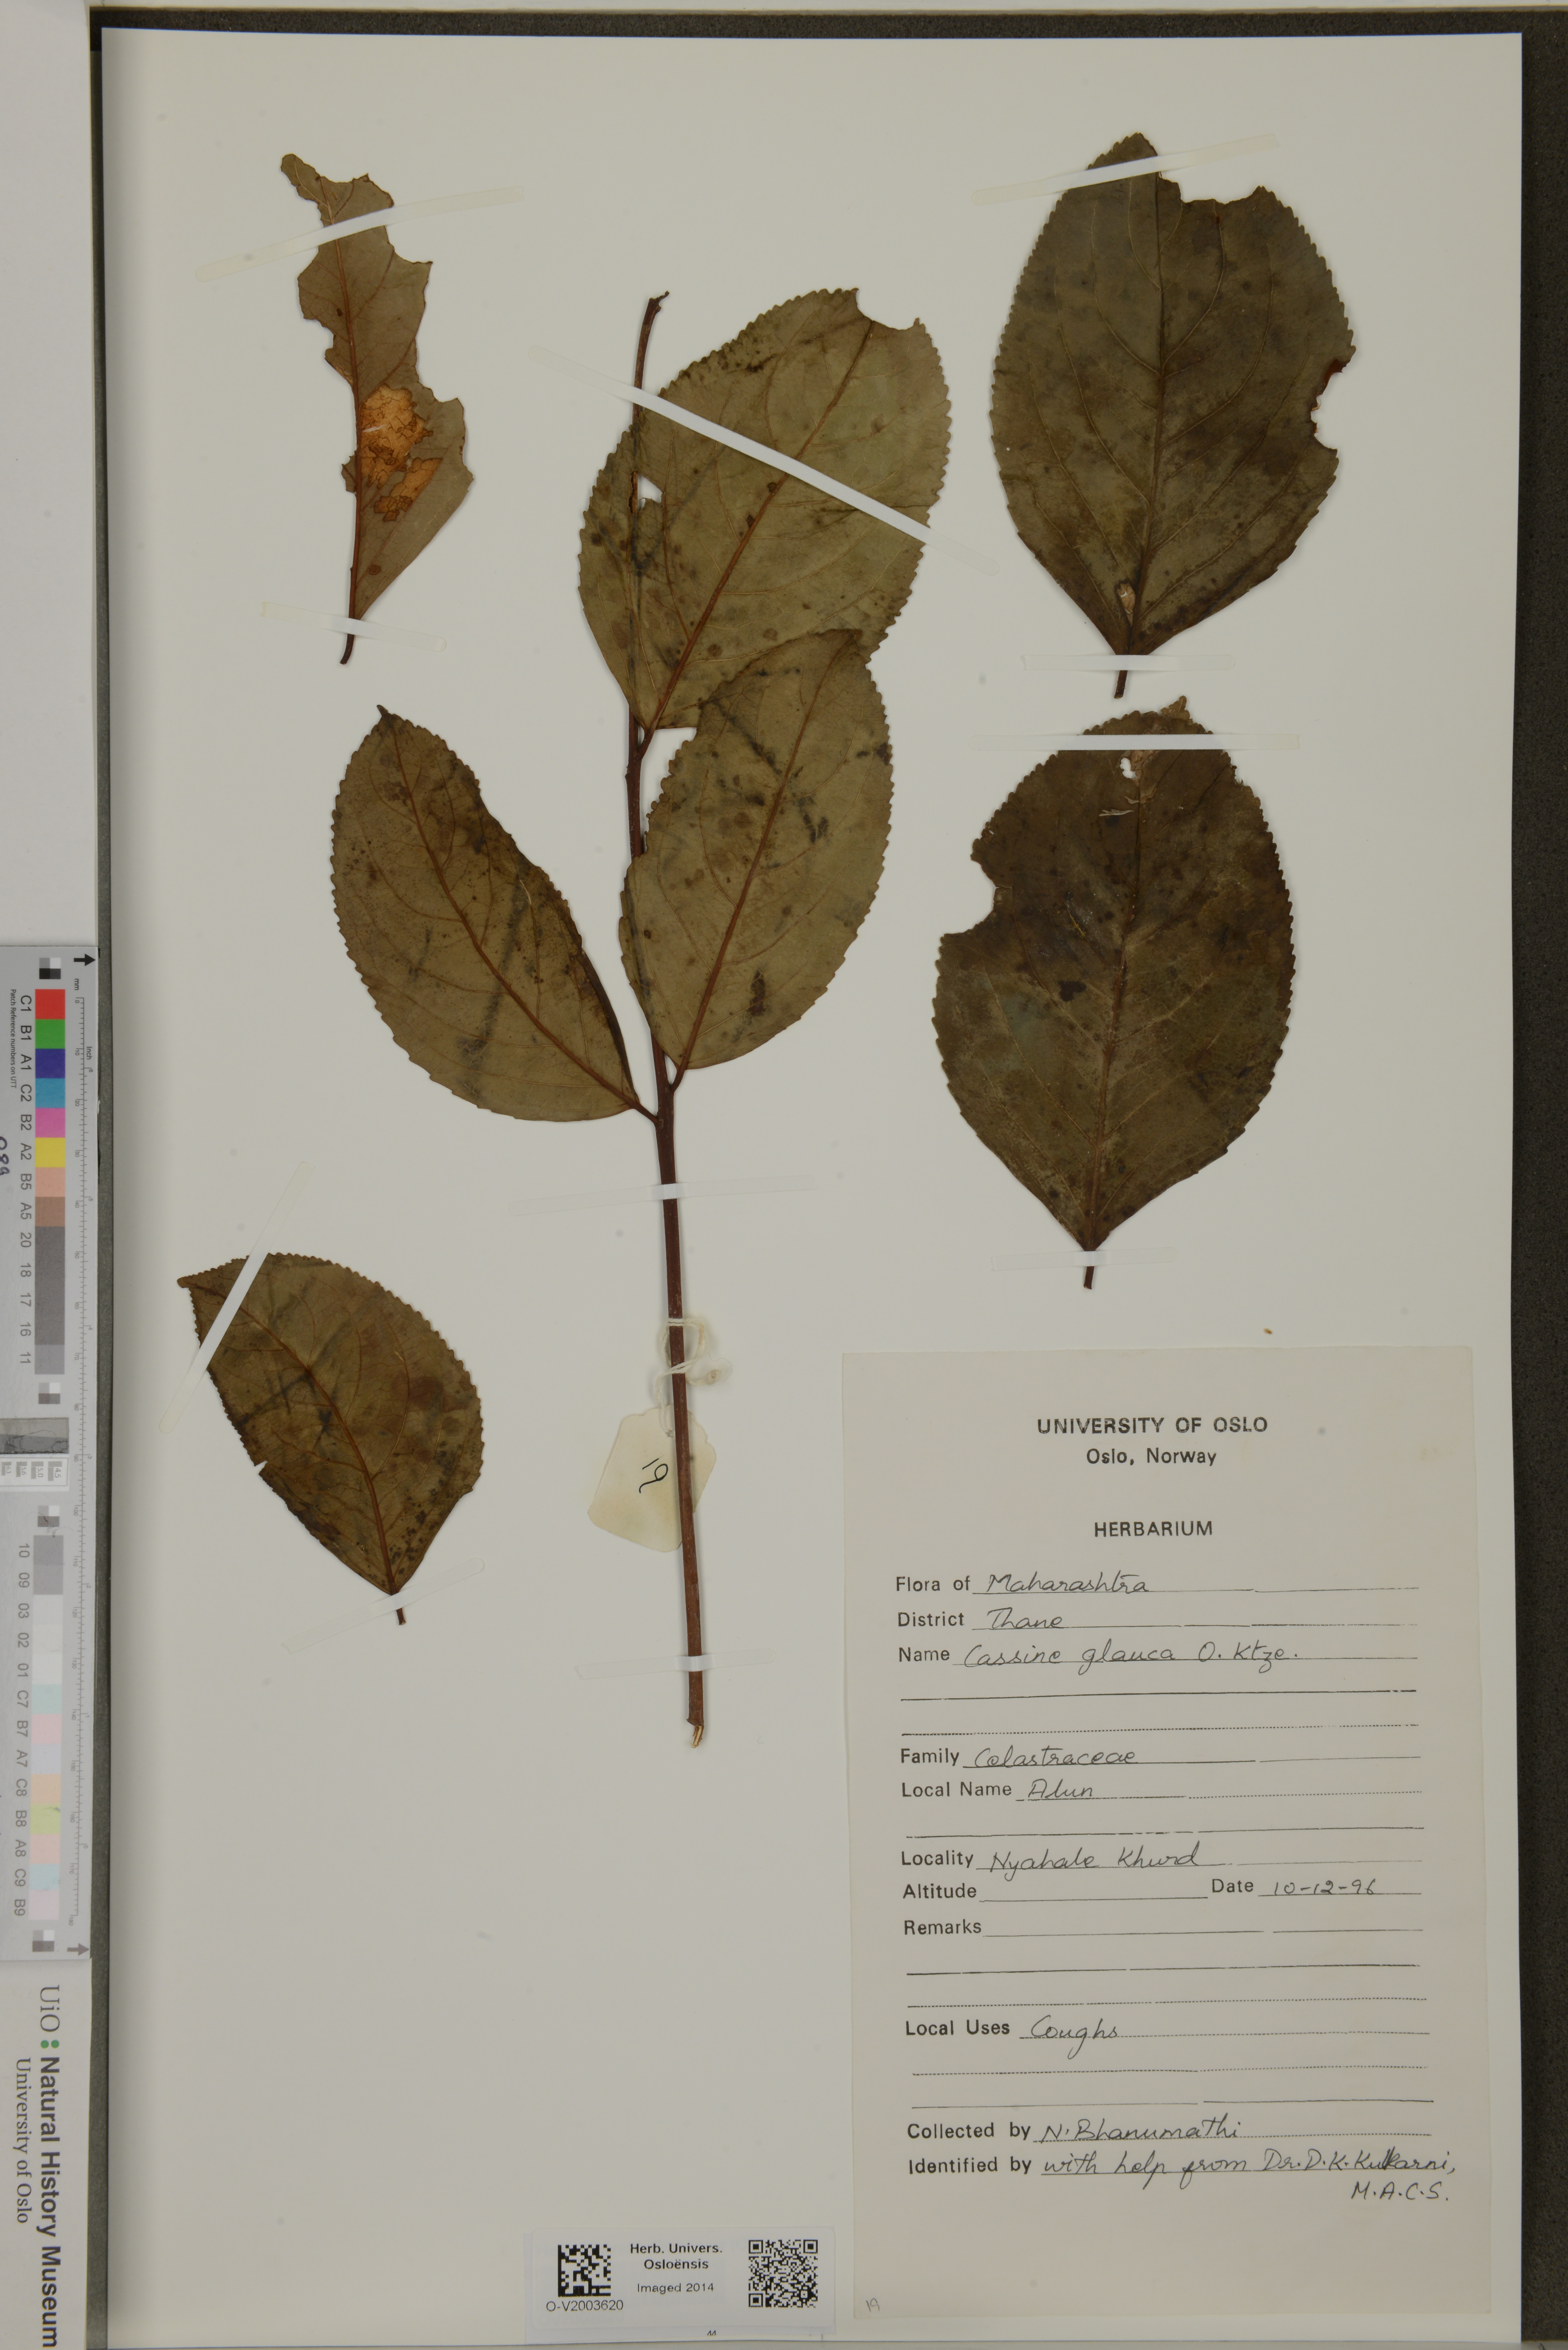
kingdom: Plantae
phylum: Tracheophyta
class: Magnoliopsida
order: Celastrales
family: Celastraceae
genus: Elaeodendron
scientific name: Elaeodendron glaucum
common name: Ceylon-tea
